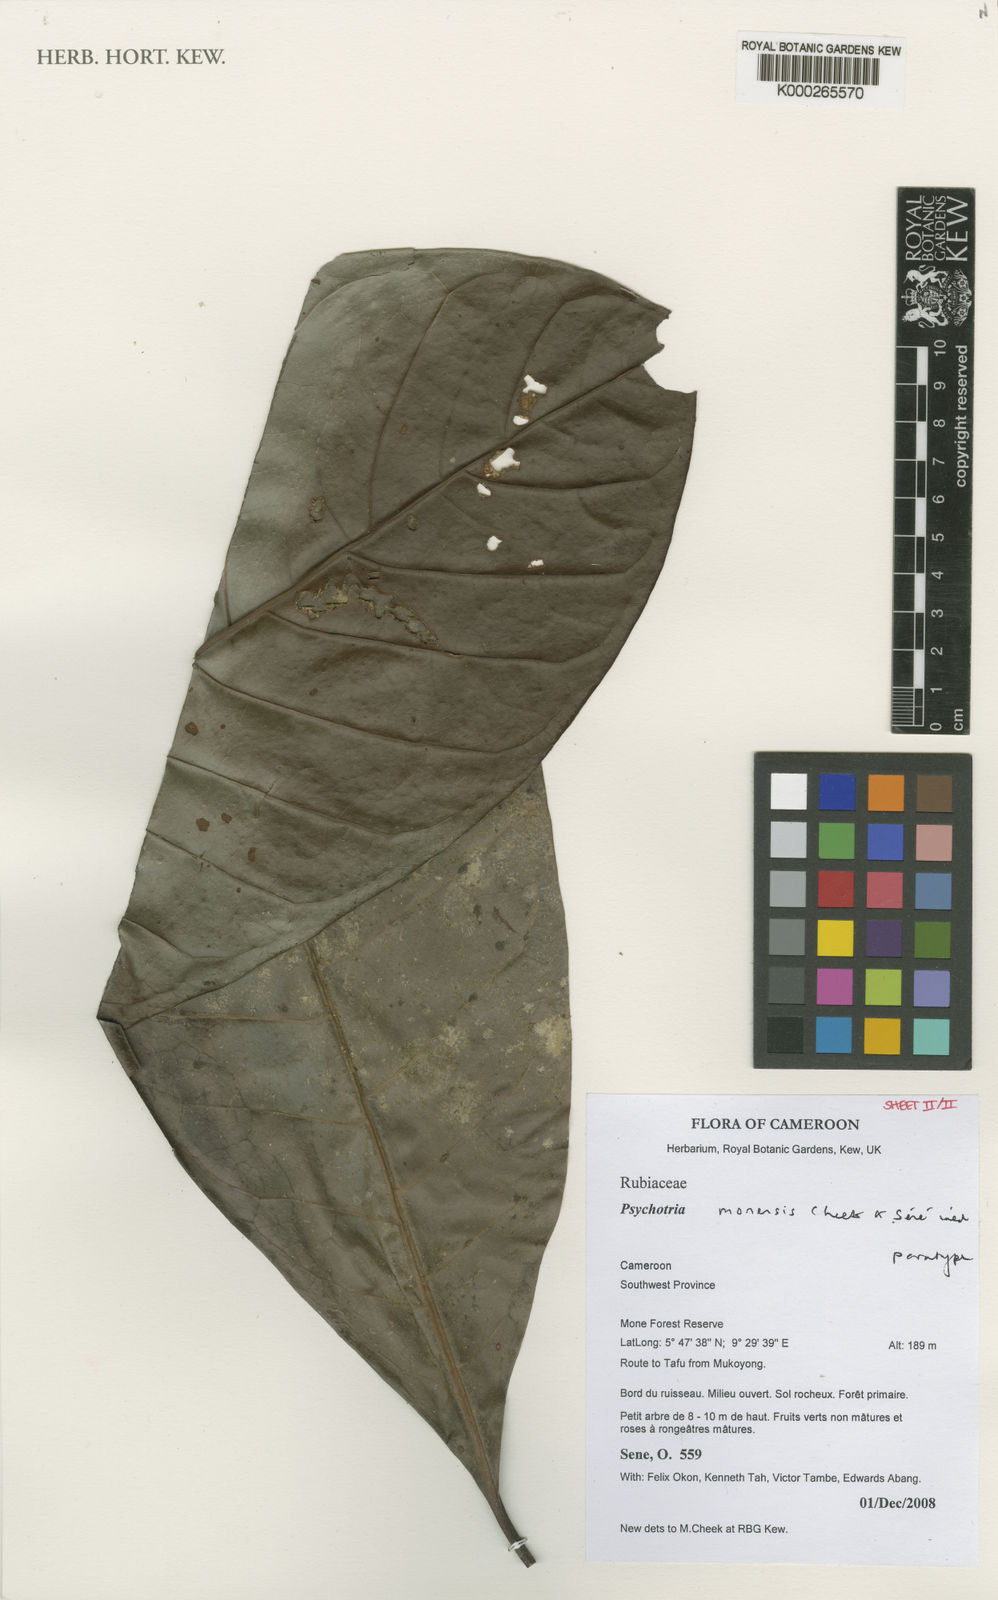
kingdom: Plantae
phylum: Tracheophyta
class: Magnoliopsida
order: Gentianales
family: Rubiaceae
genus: Psychotria
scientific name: Psychotria
